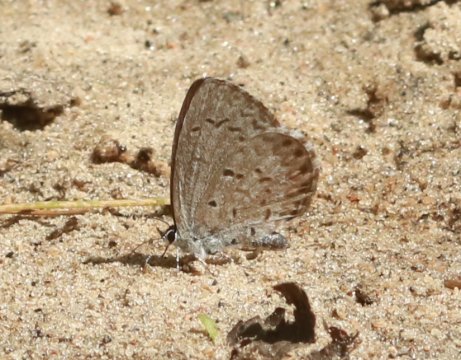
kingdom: Animalia
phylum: Arthropoda
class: Insecta
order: Lepidoptera
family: Lycaenidae
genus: Celastrina
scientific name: Celastrina lucia
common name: Northern Spring Azure
